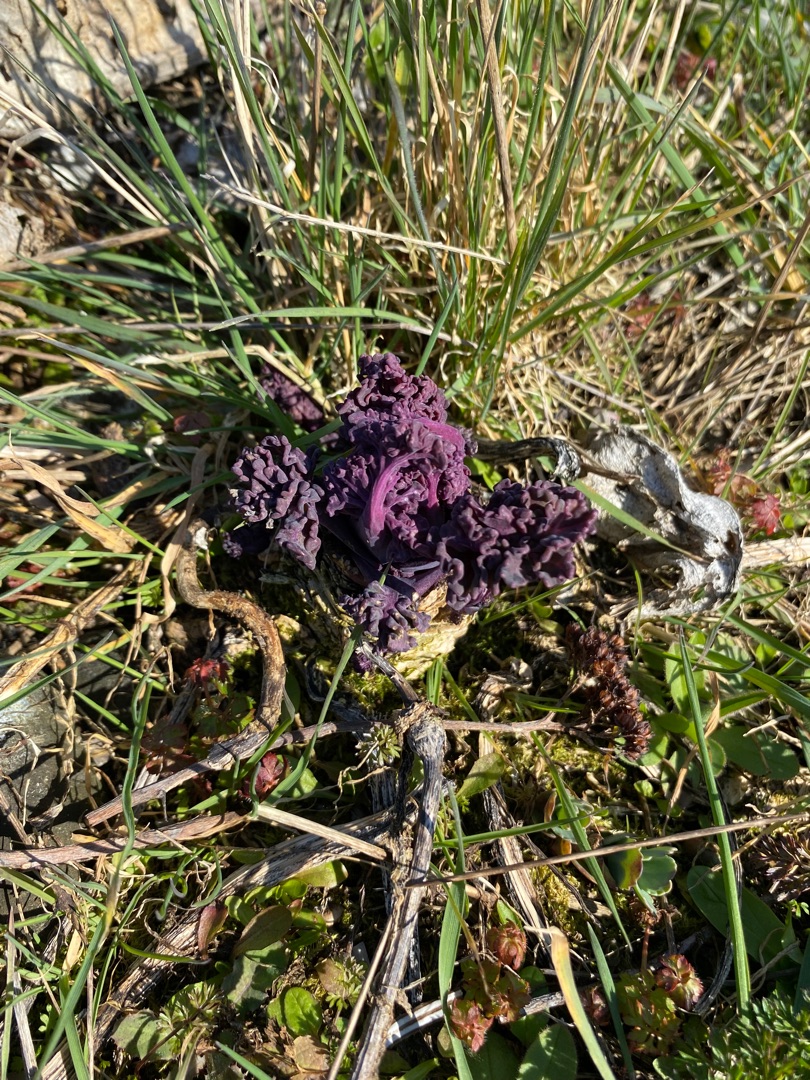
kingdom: Plantae
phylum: Tracheophyta
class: Magnoliopsida
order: Brassicales
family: Brassicaceae
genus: Crambe
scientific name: Crambe maritima
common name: Strandkål
